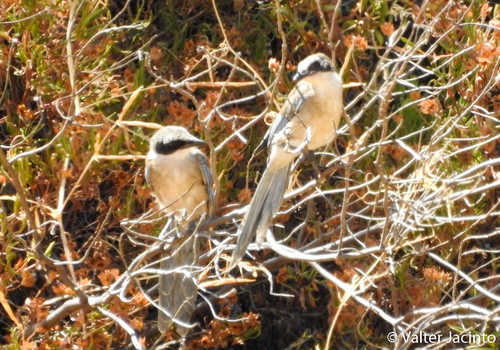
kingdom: Animalia
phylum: Chordata
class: Aves
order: Passeriformes
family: Corvidae
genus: Cyanopica
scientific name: Cyanopica cooki
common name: Iberian magpie
